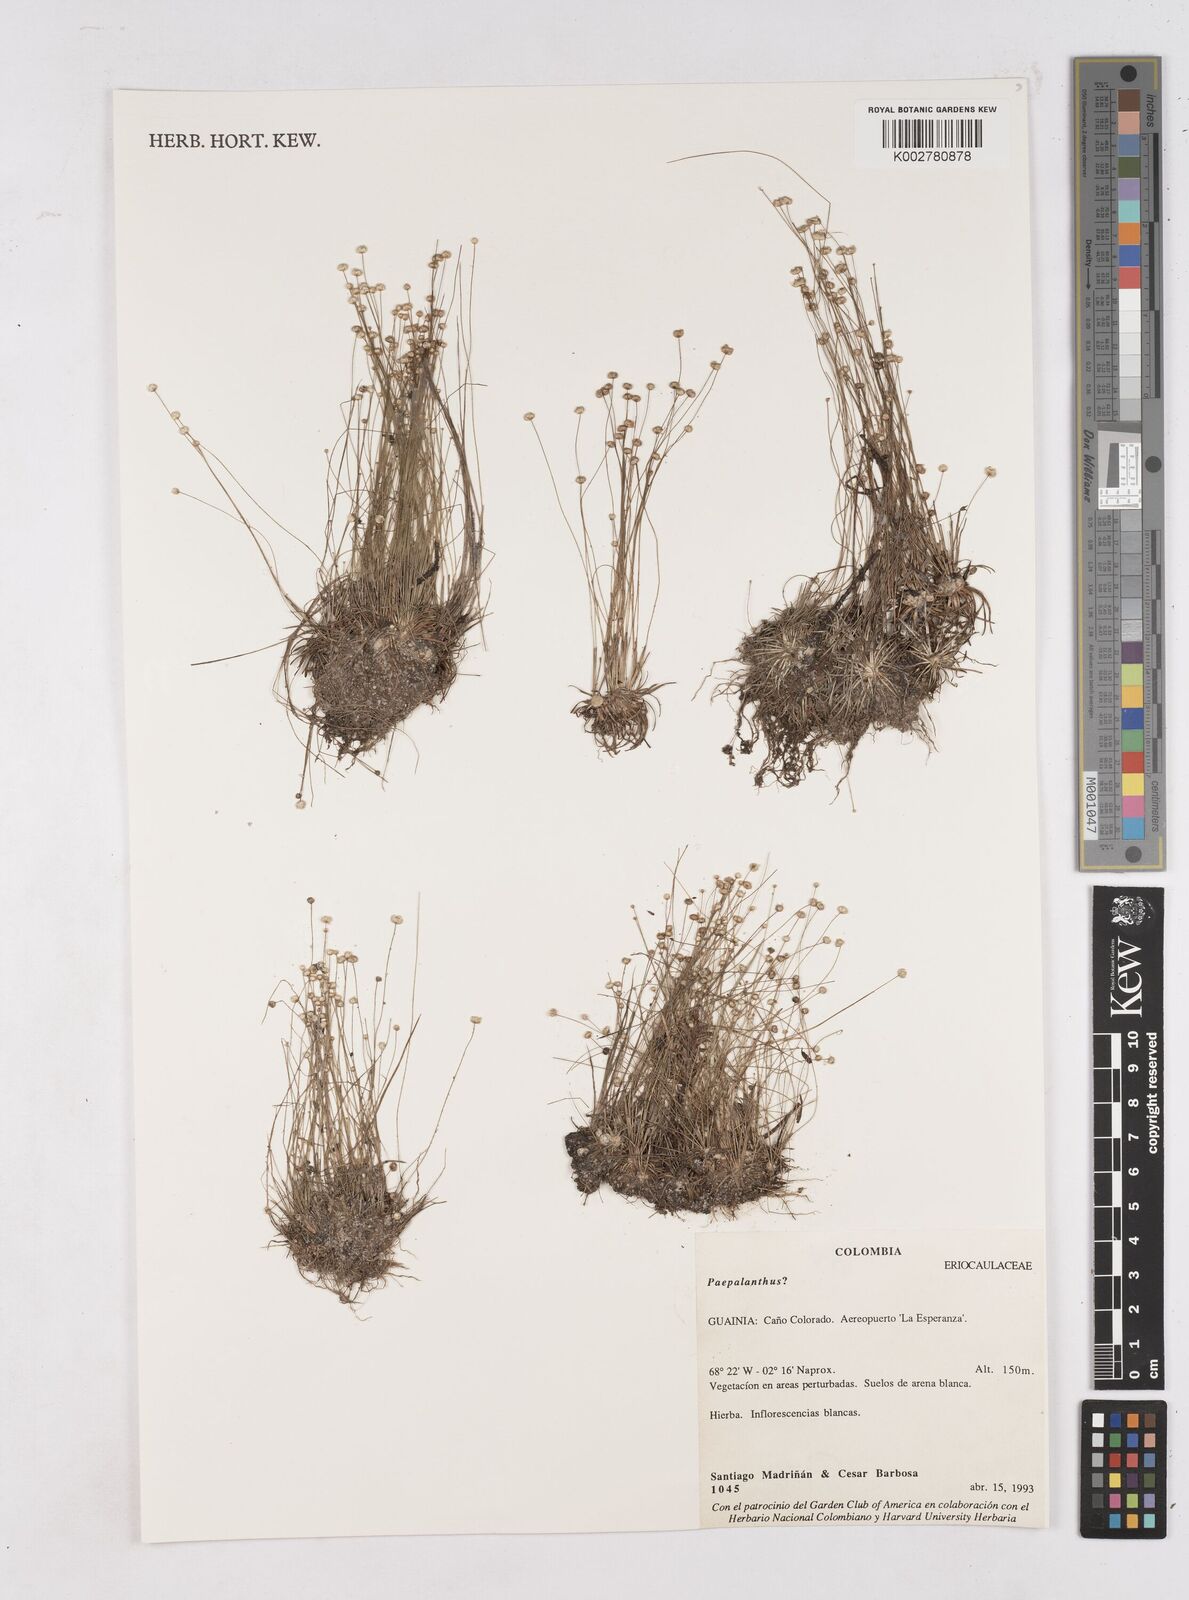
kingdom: Plantae
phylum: Tracheophyta
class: Liliopsida
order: Poales
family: Eriocaulaceae
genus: Paepalanthus
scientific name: Paepalanthus
